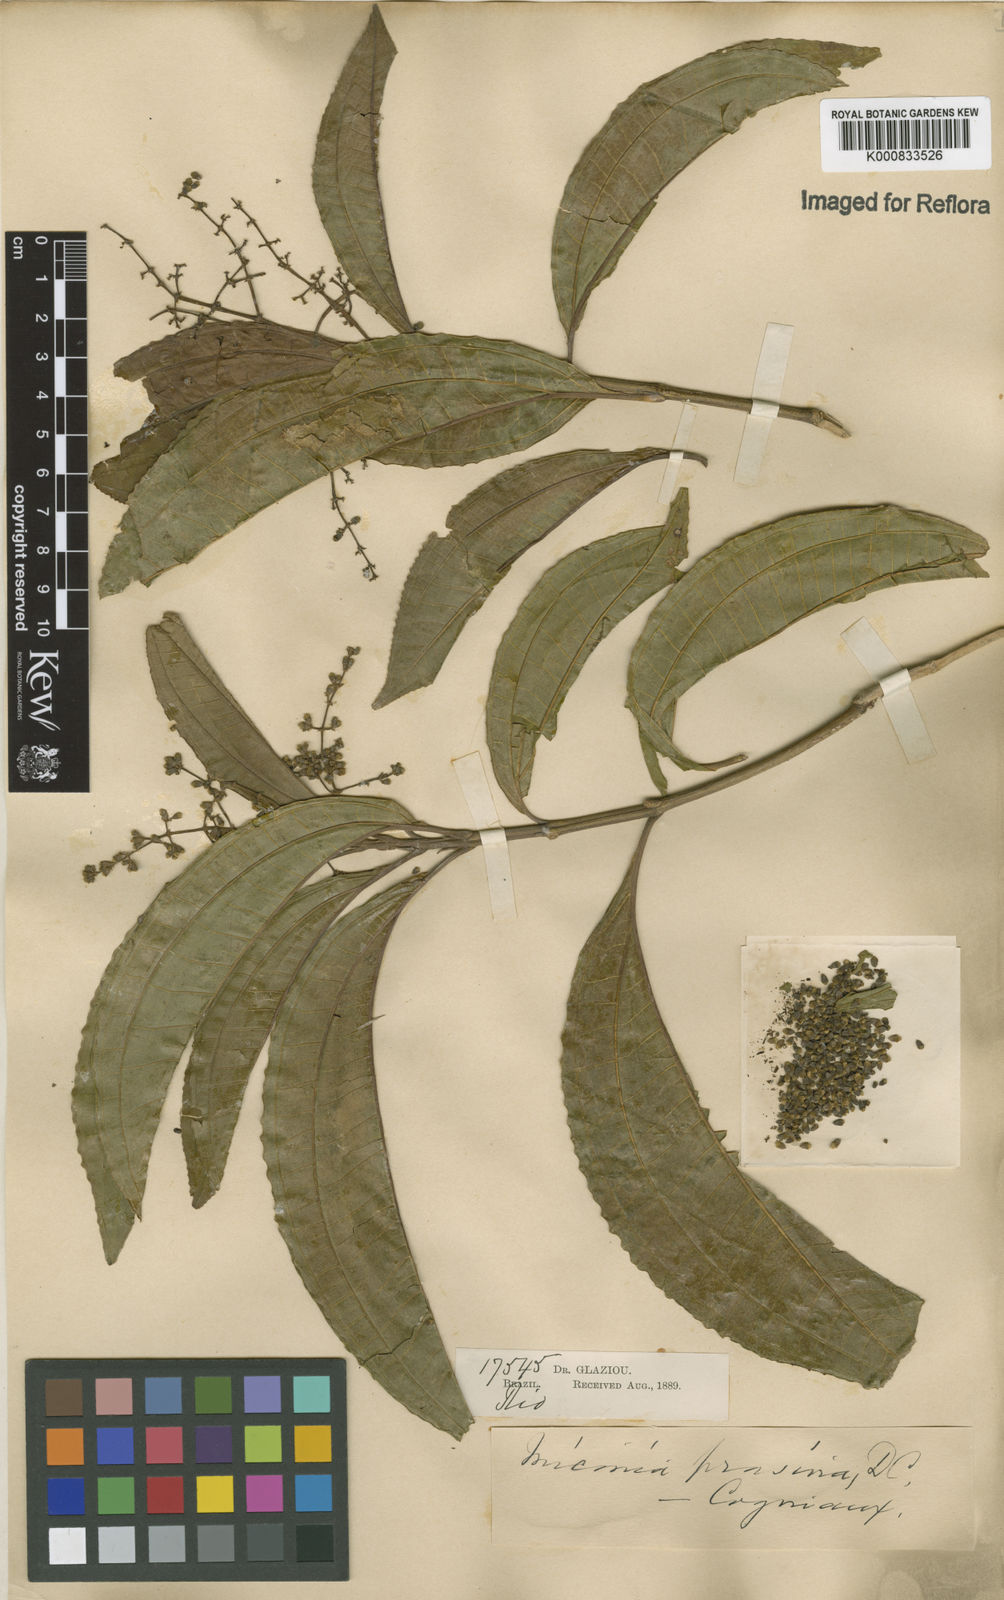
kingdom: Plantae
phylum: Tracheophyta
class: Magnoliopsida
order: Myrtales
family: Melastomataceae
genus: Miconia
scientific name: Miconia prasina
